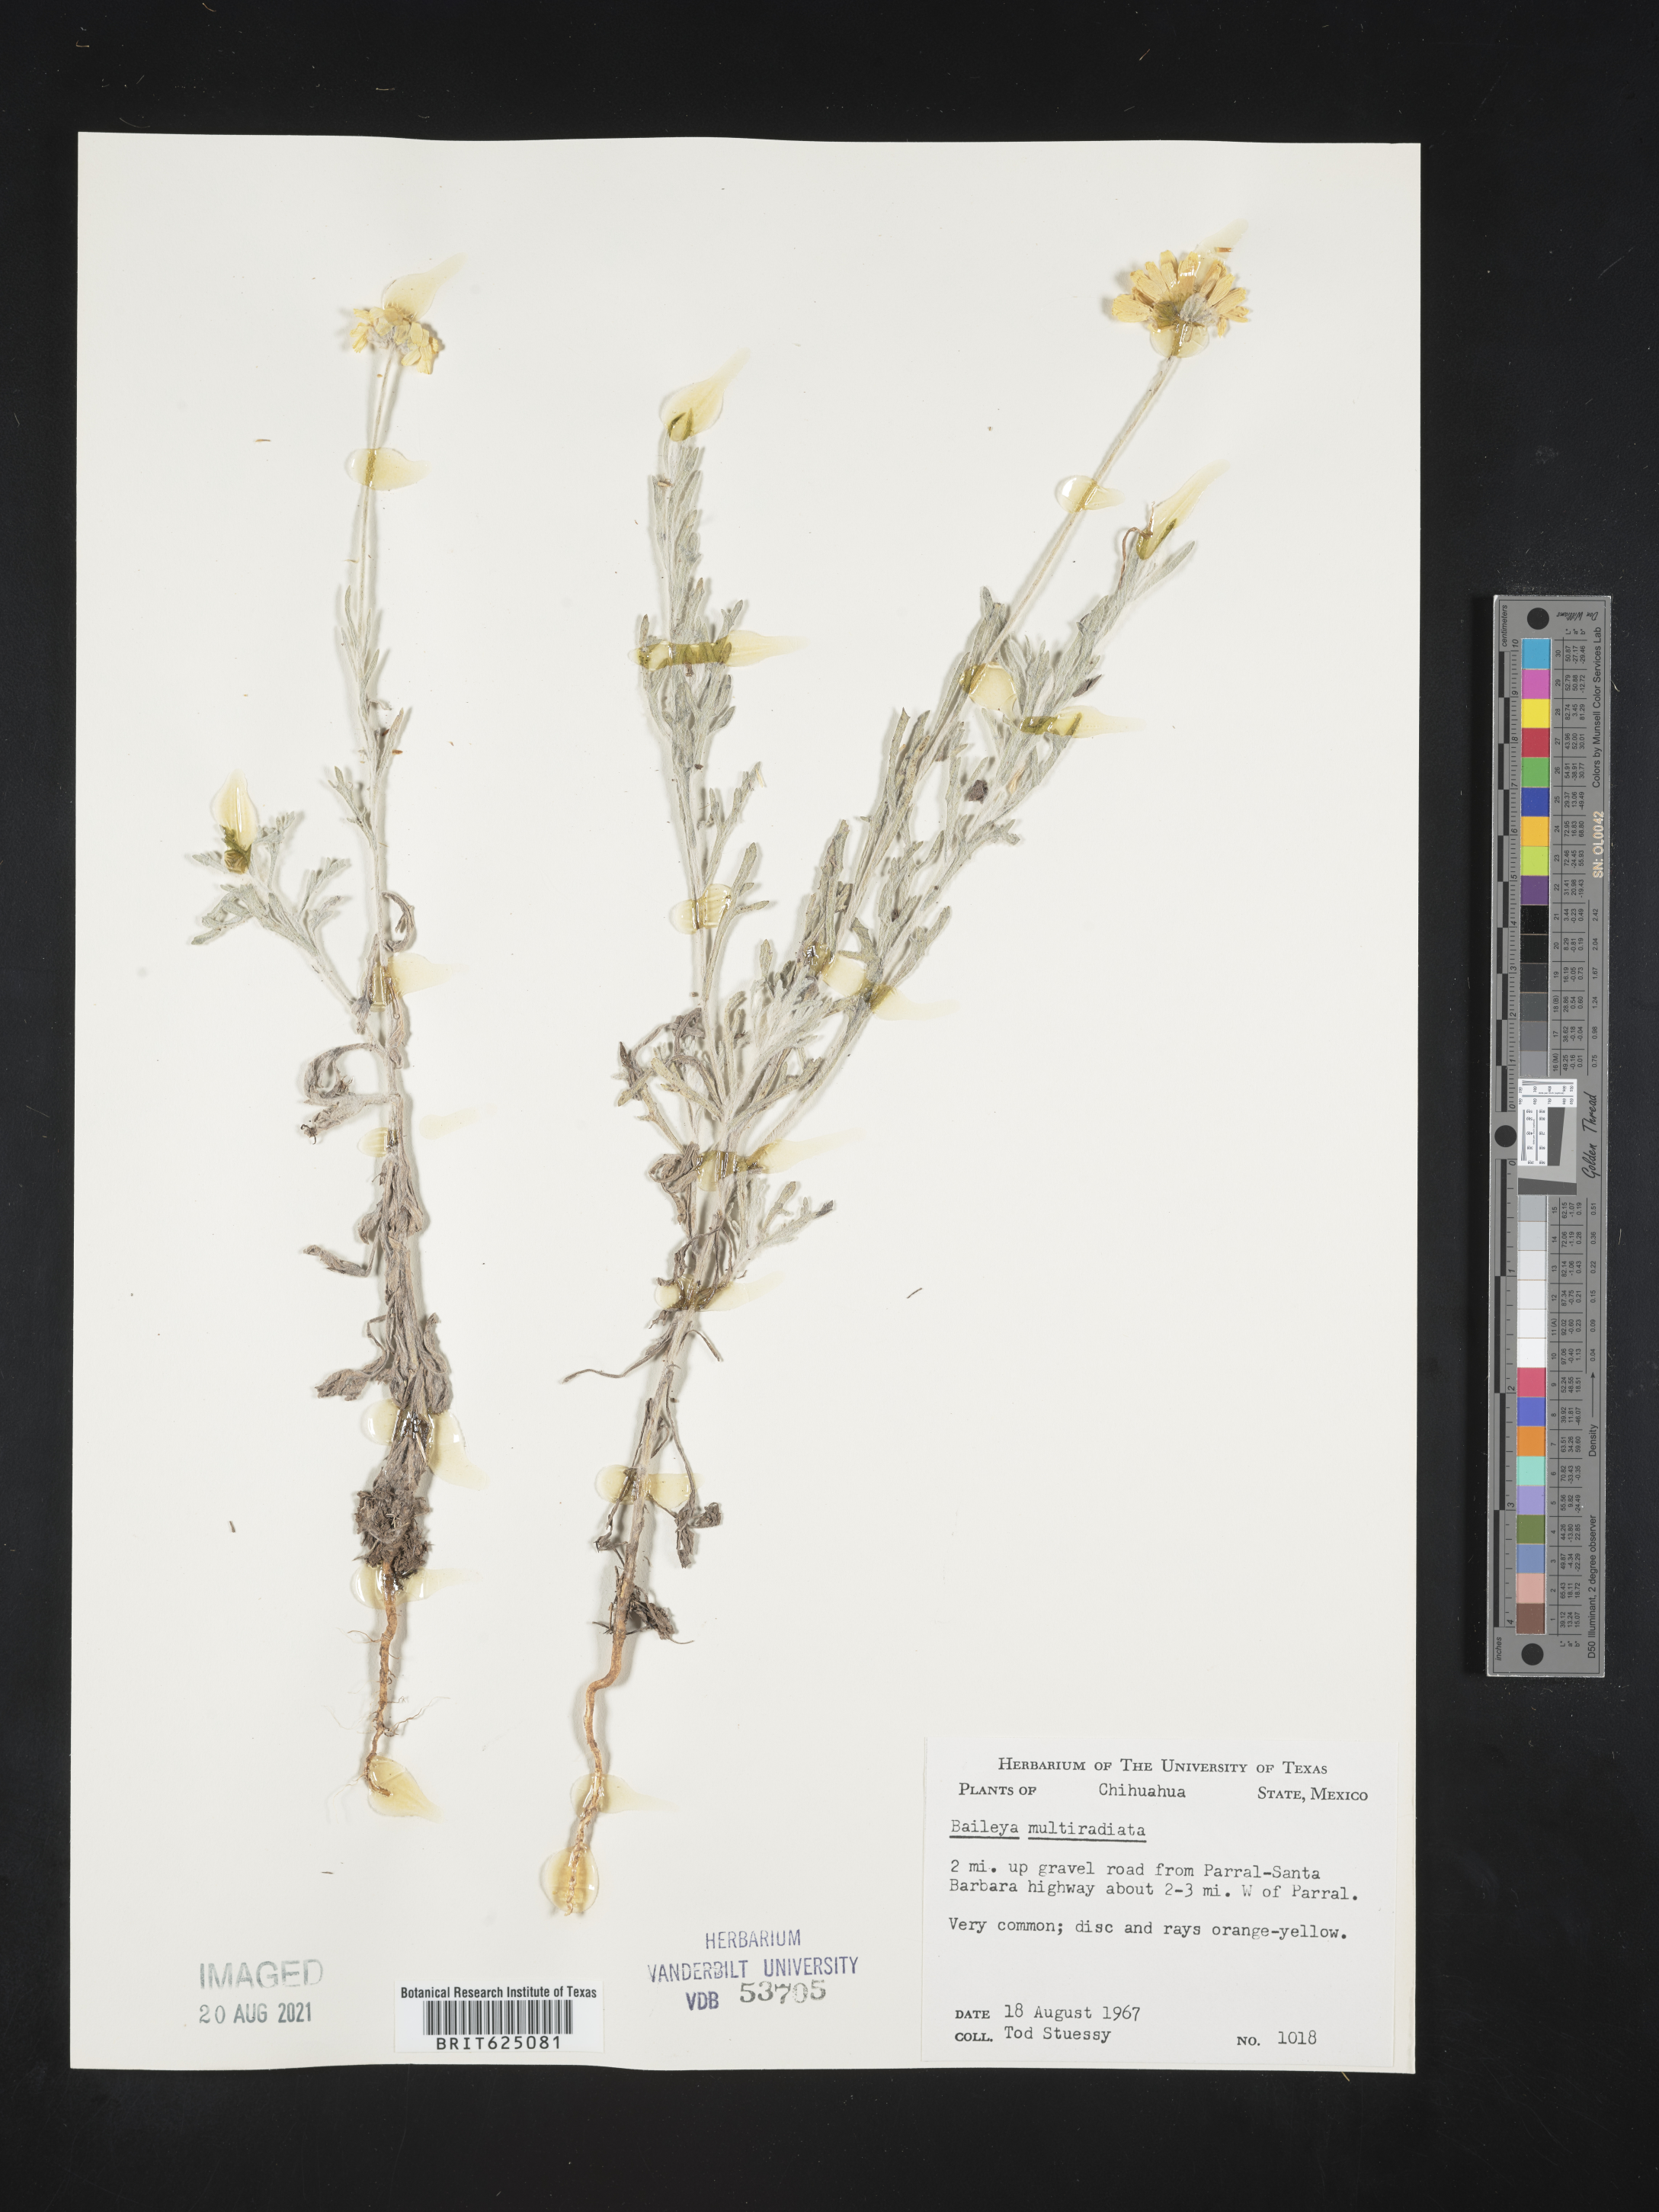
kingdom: Plantae
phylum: Tracheophyta
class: Magnoliopsida
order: Asterales
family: Asteraceae
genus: Baileya
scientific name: Baileya
